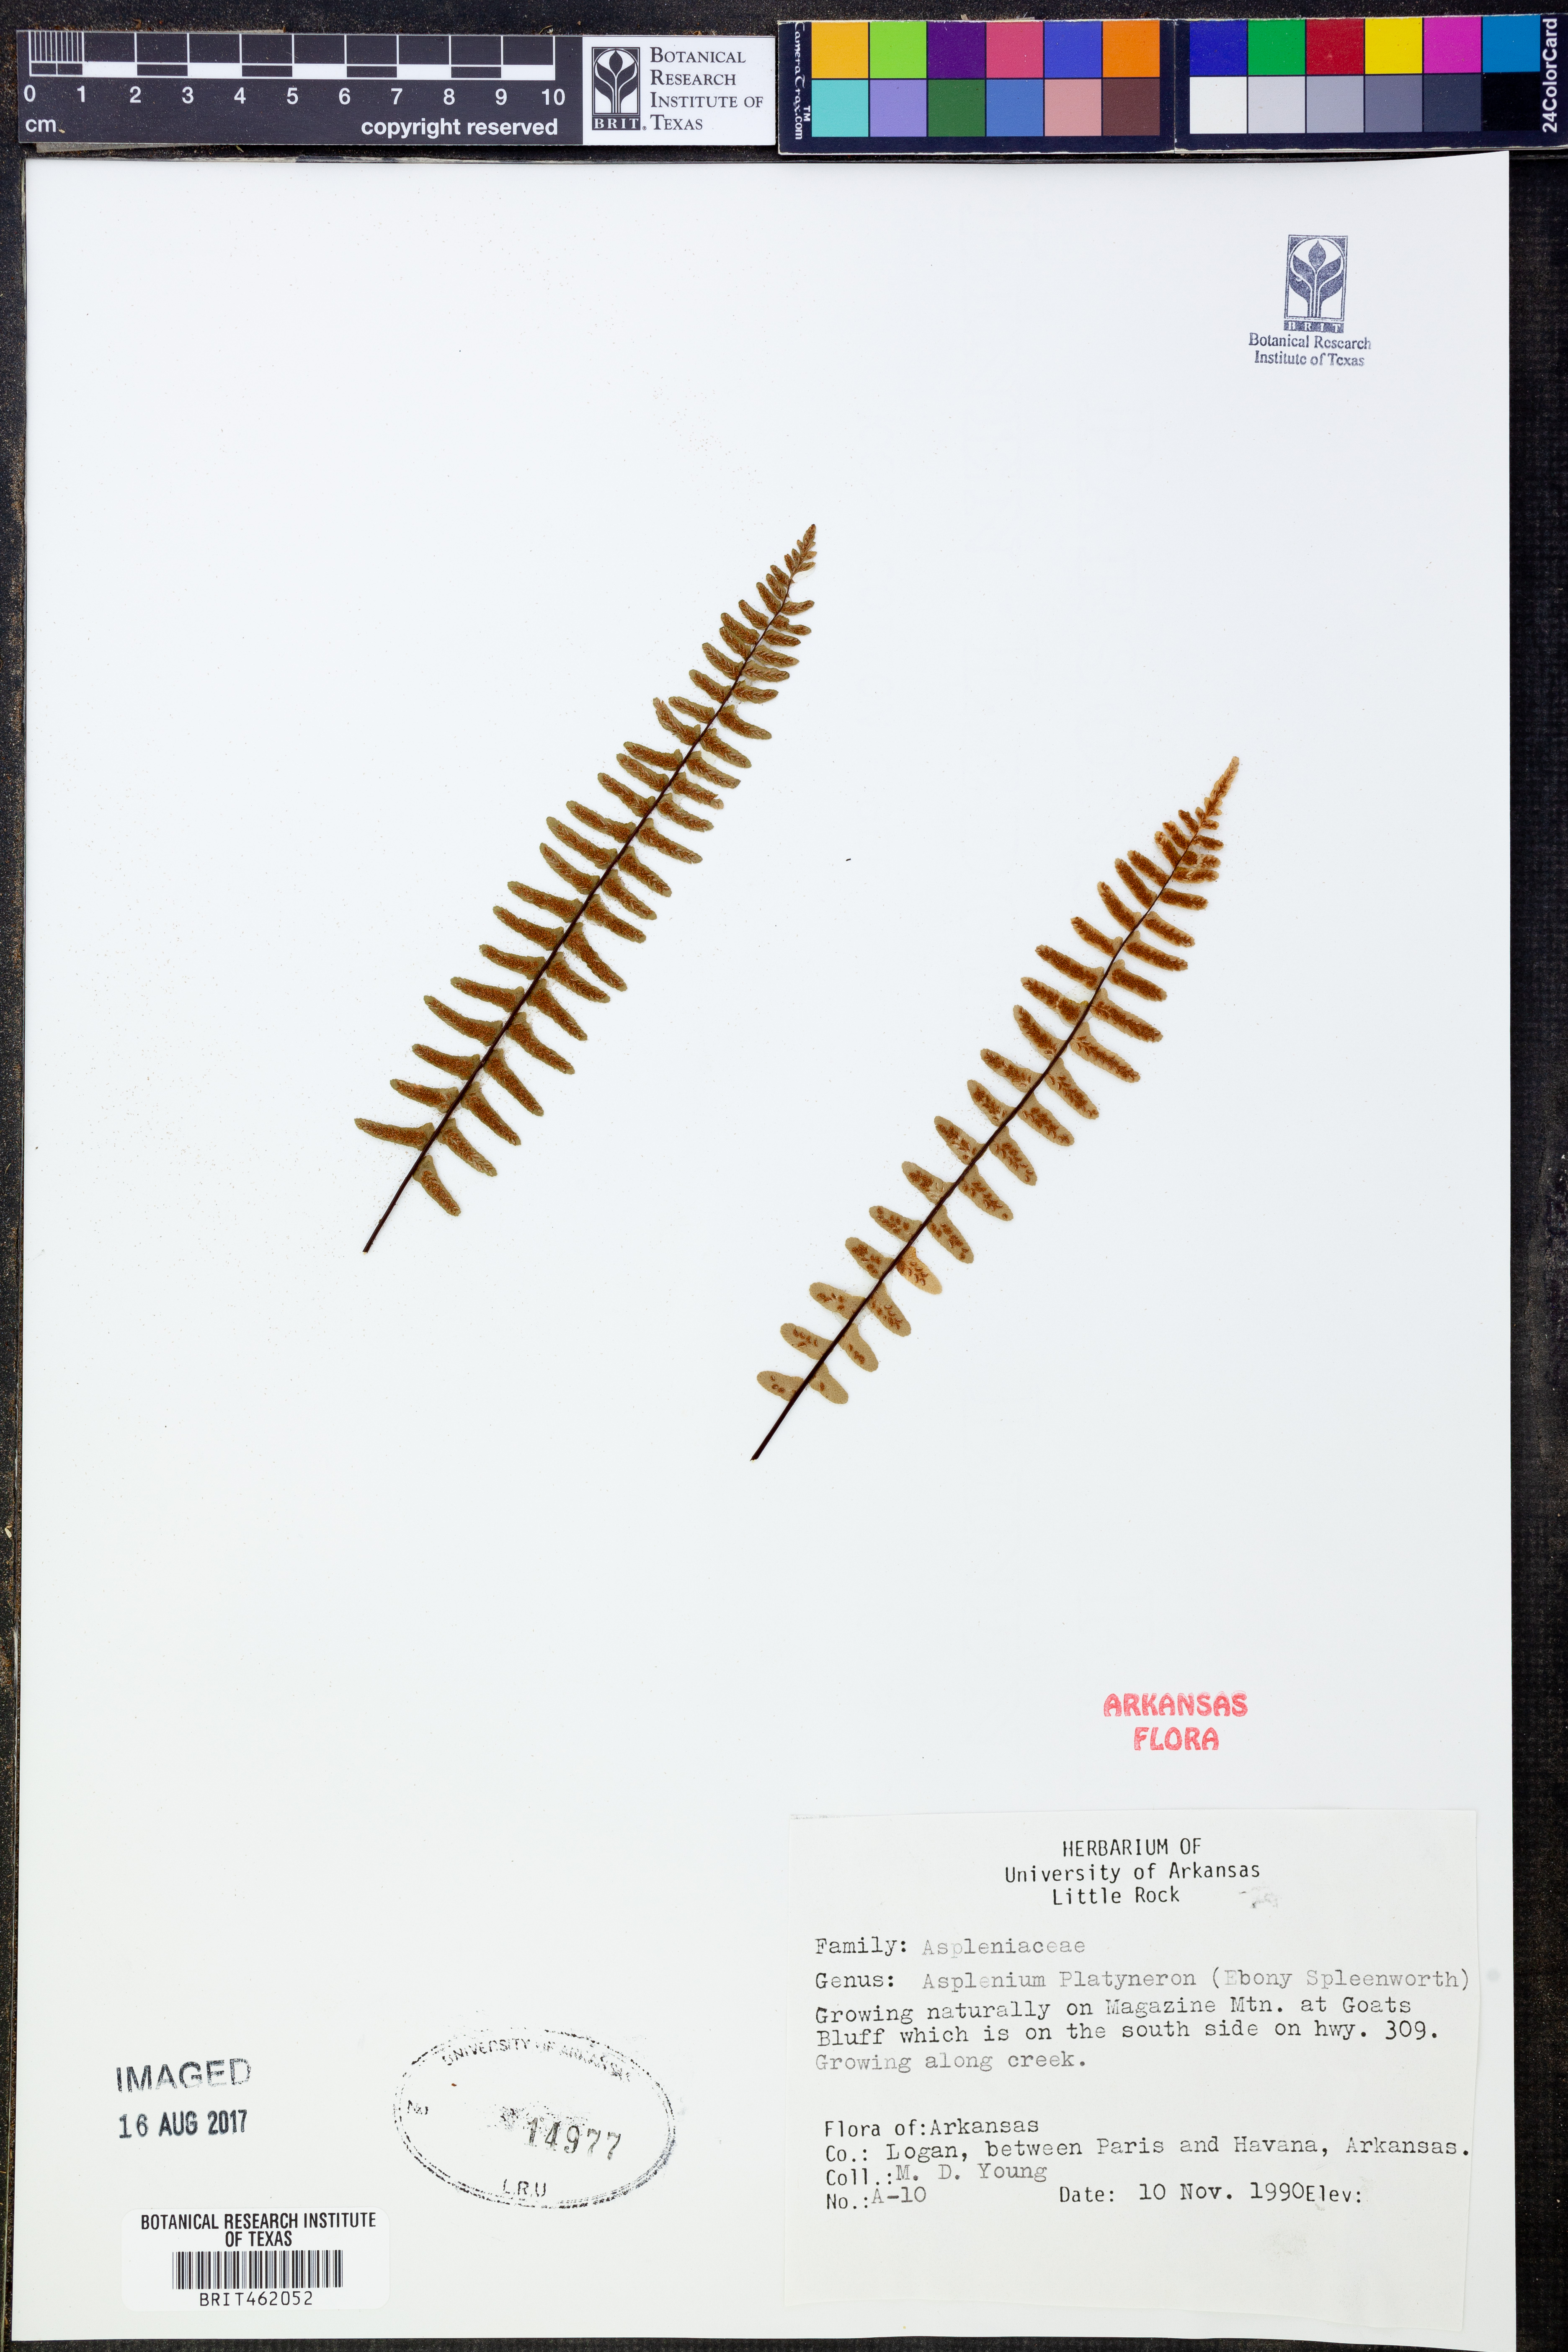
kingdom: Plantae
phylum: Tracheophyta
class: Polypodiopsida
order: Polypodiales
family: Aspleniaceae
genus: Asplenium
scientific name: Asplenium platyneuron
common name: Ebony spleenwort
